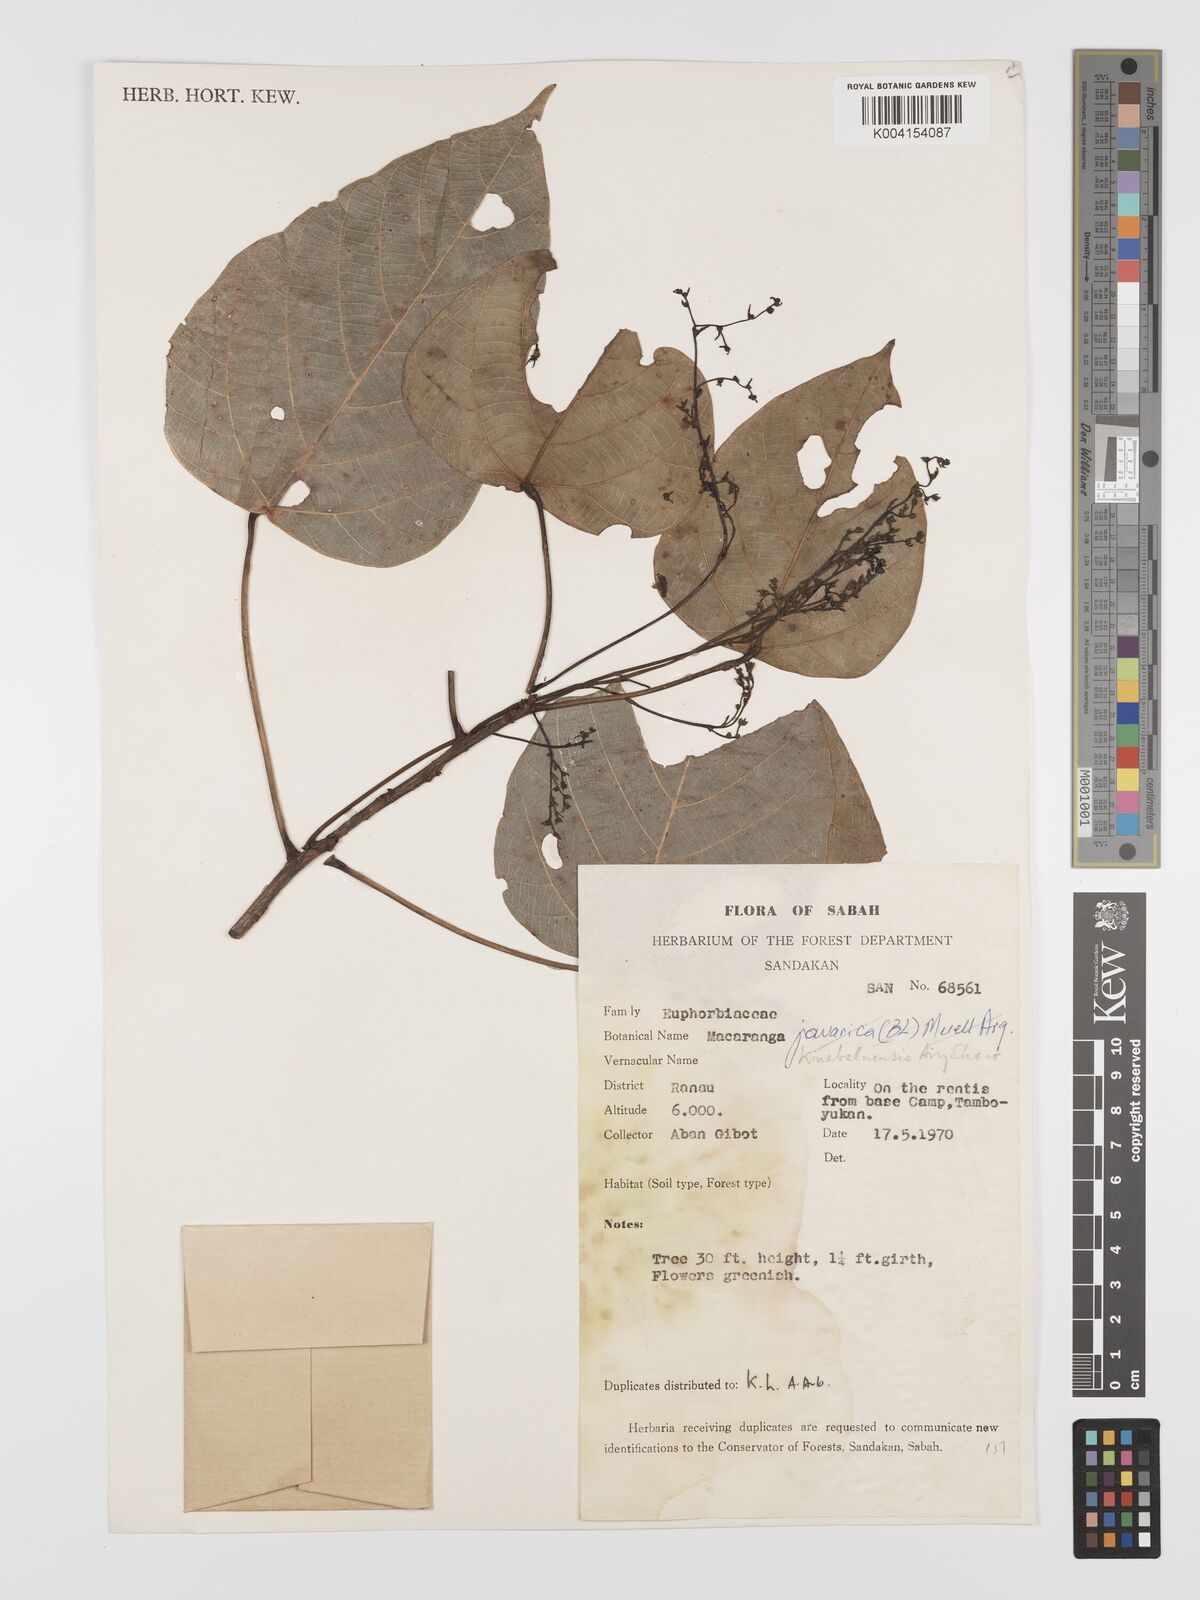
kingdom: Plantae
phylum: Tracheophyta
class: Magnoliopsida
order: Malpighiales
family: Euphorbiaceae
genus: Macaranga
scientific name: Macaranga kinabaluensis
